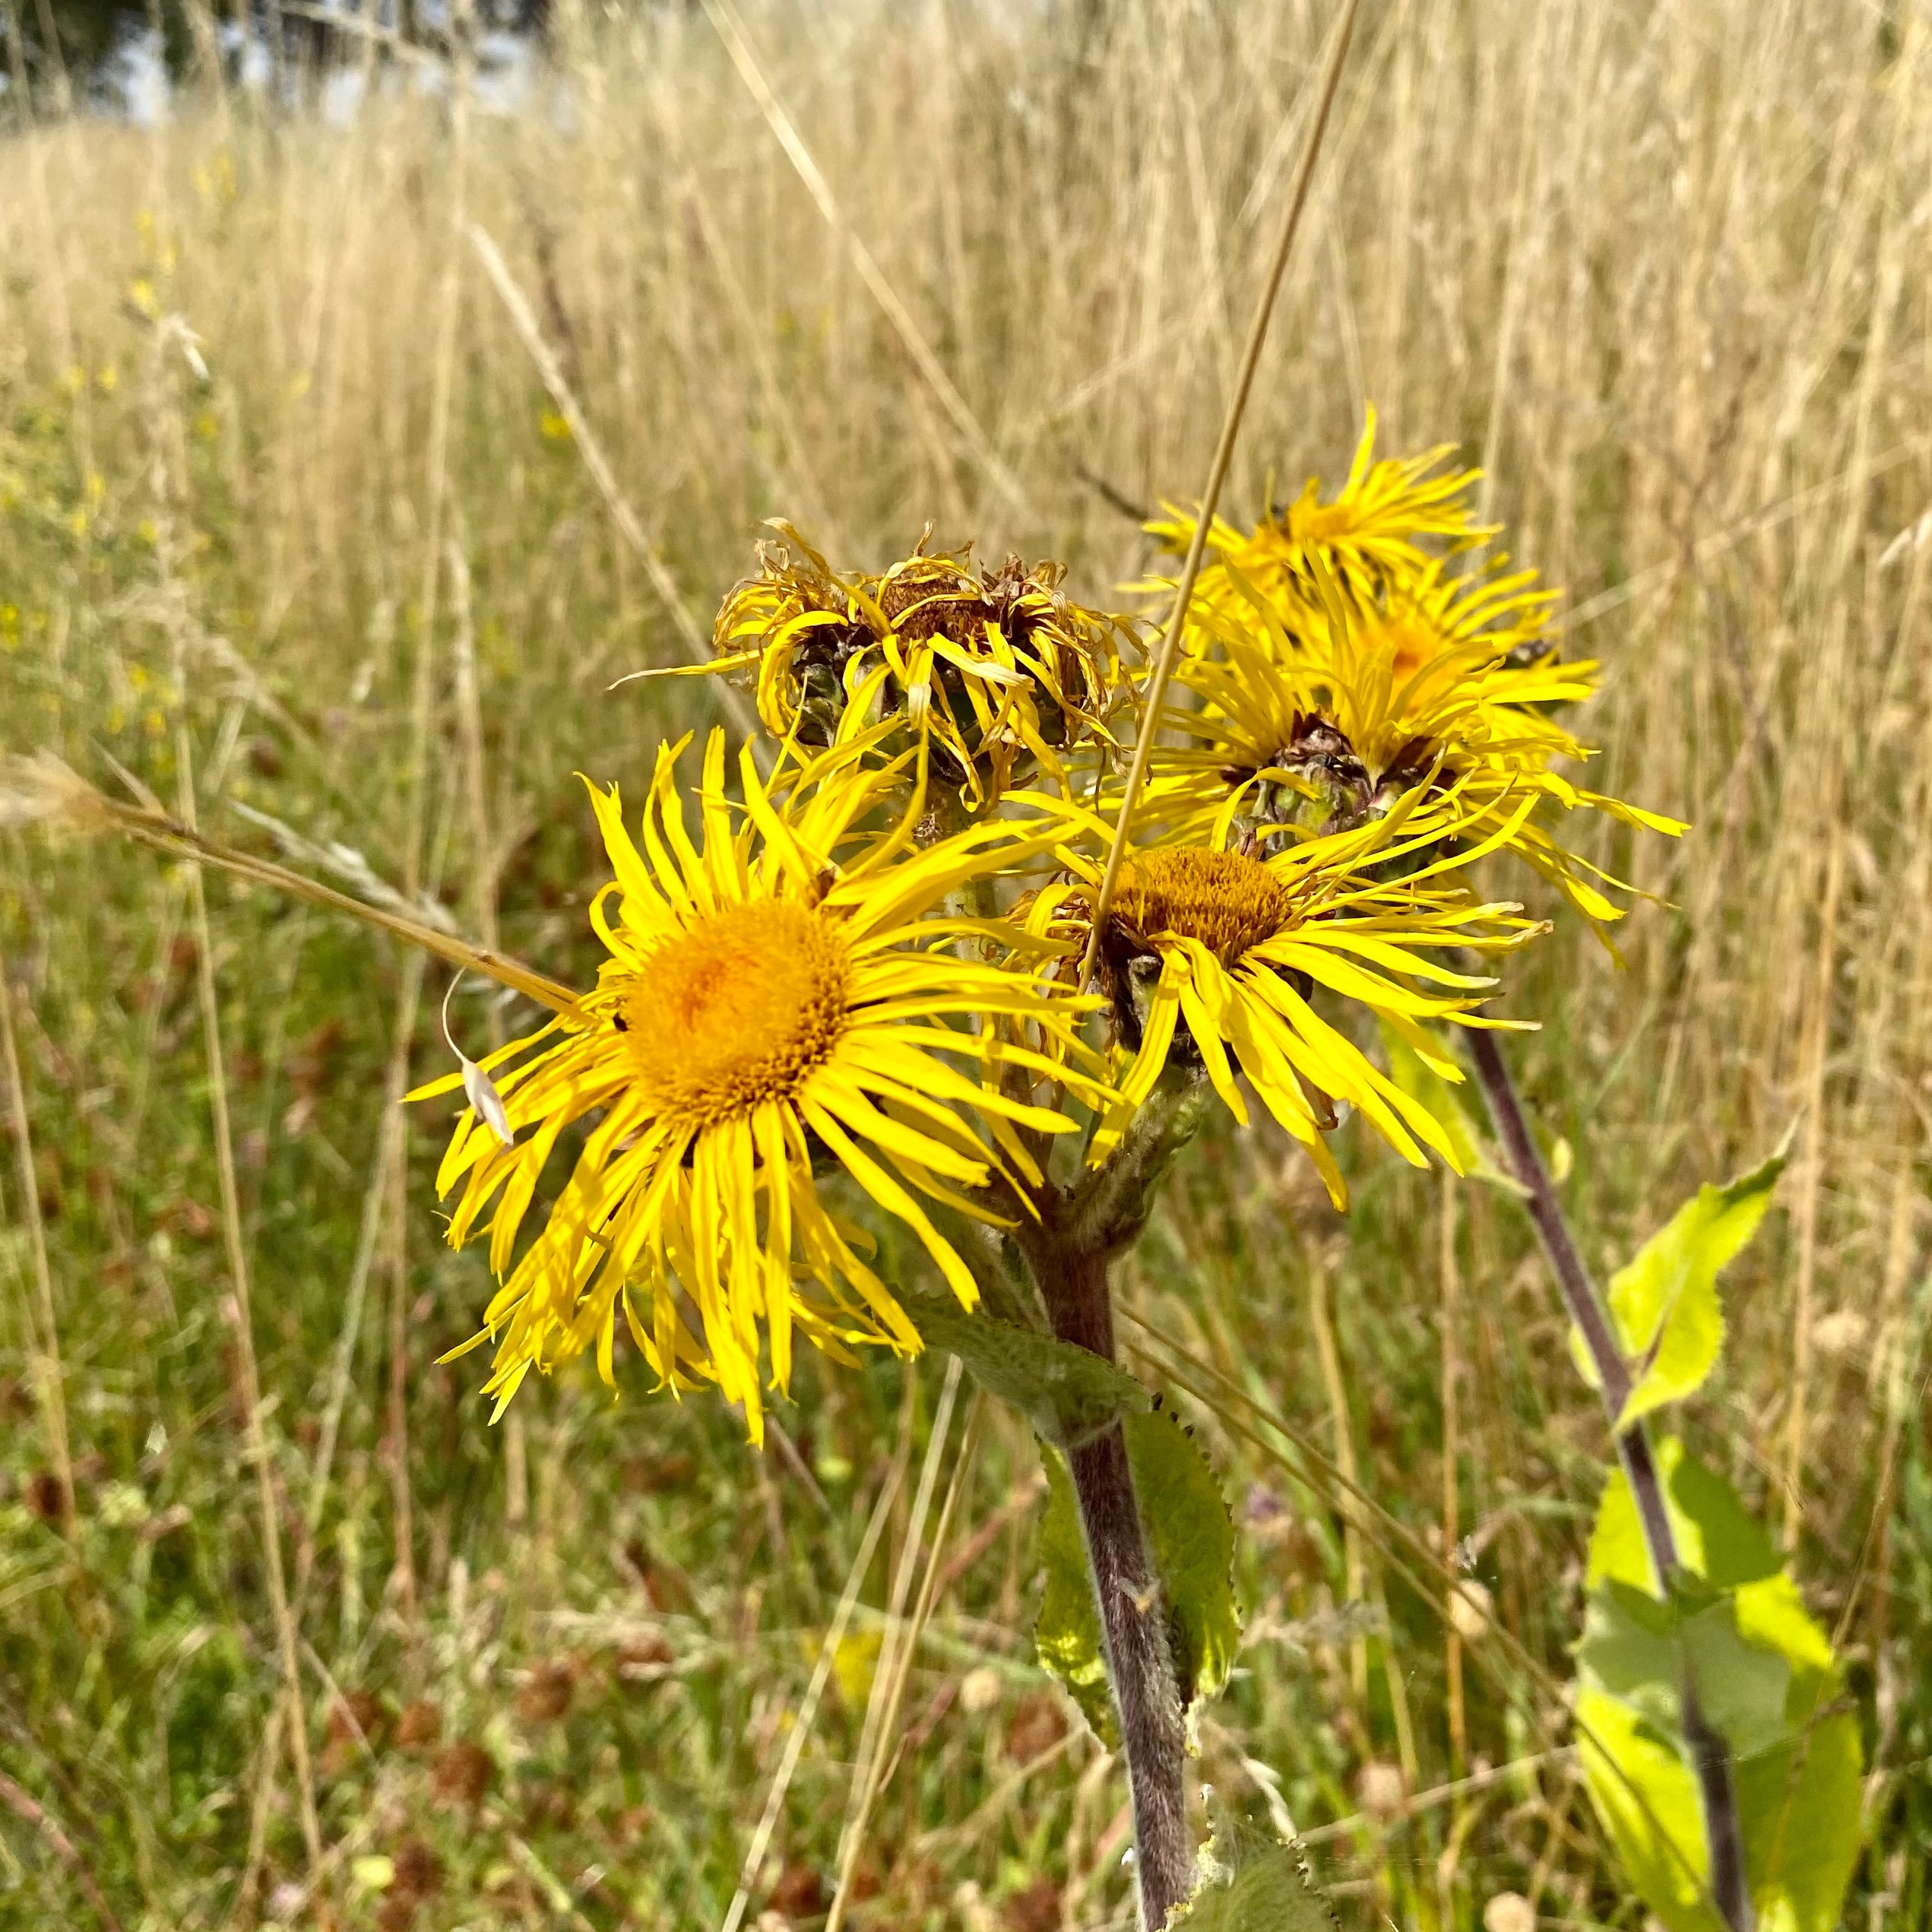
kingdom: Plantae
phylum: Tracheophyta
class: Magnoliopsida
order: Asterales
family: Asteraceae
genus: Telekia
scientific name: Telekia speciosa
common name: Tusindstråle
